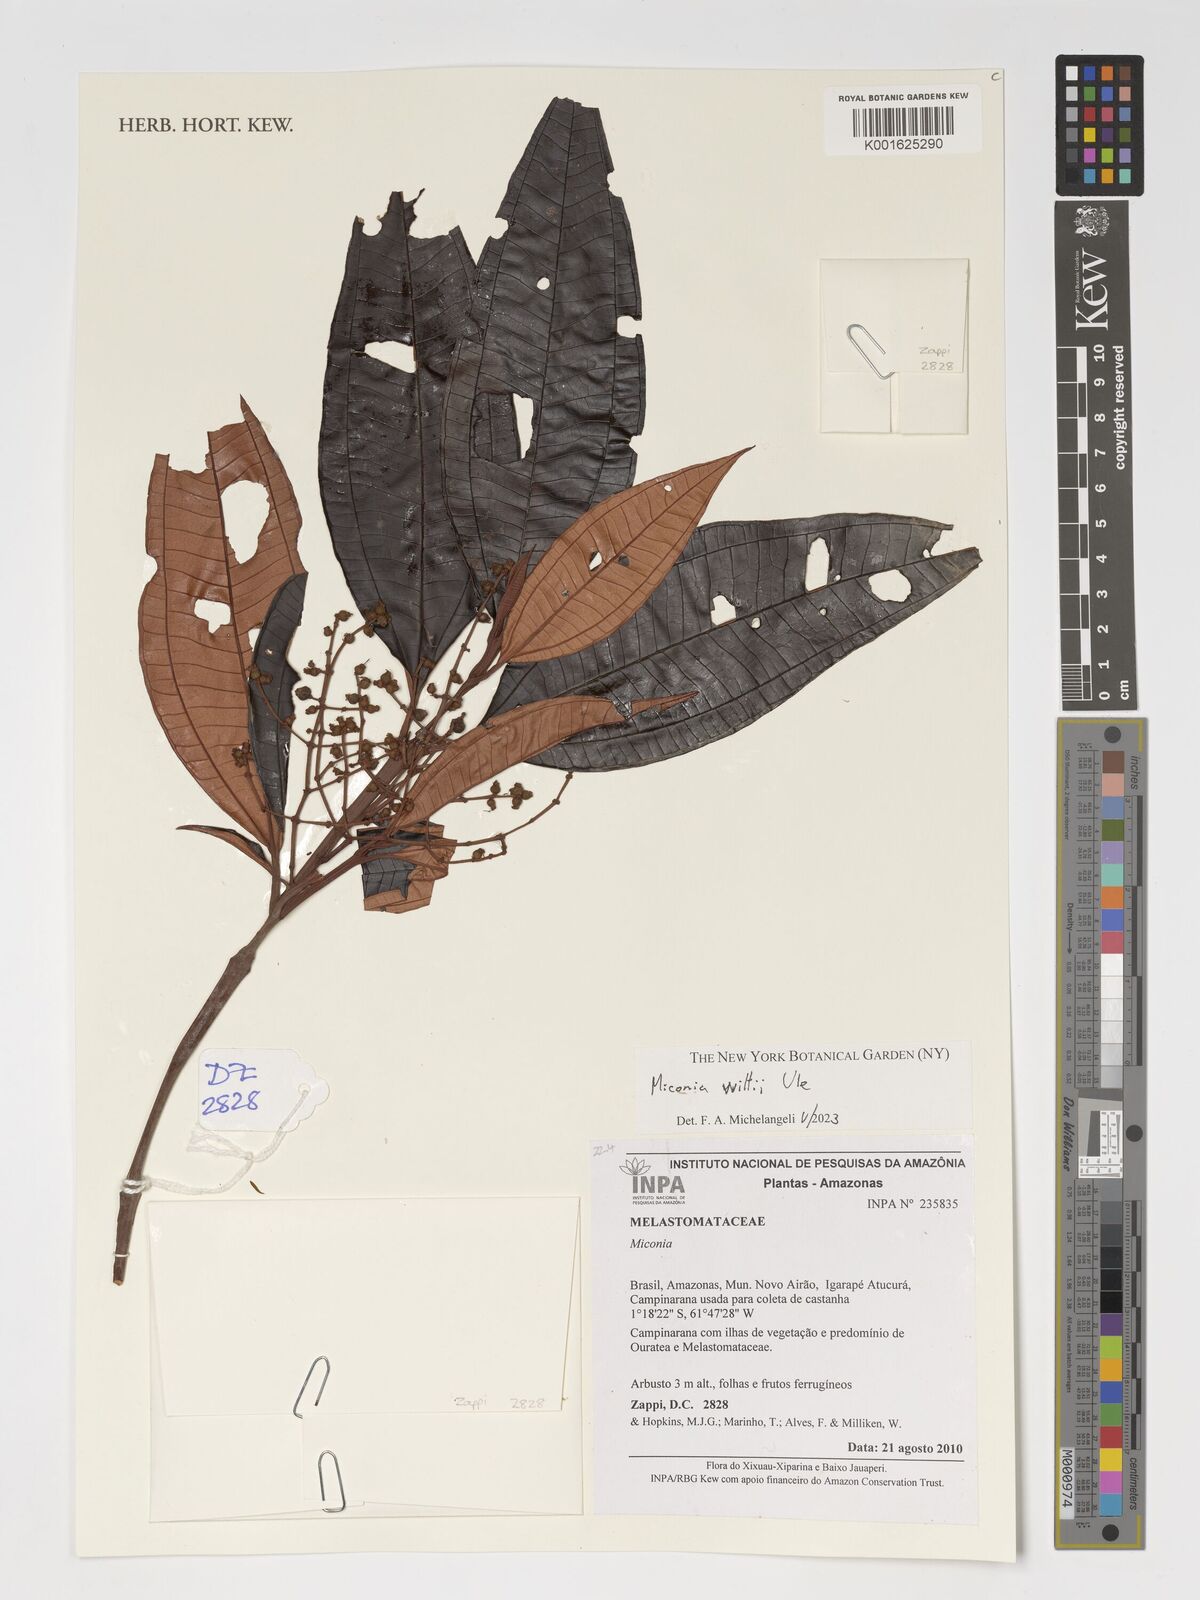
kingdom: Plantae
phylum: Tracheophyta
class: Magnoliopsida
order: Myrtales
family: Melastomataceae
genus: Miconia
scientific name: Miconia wittii
